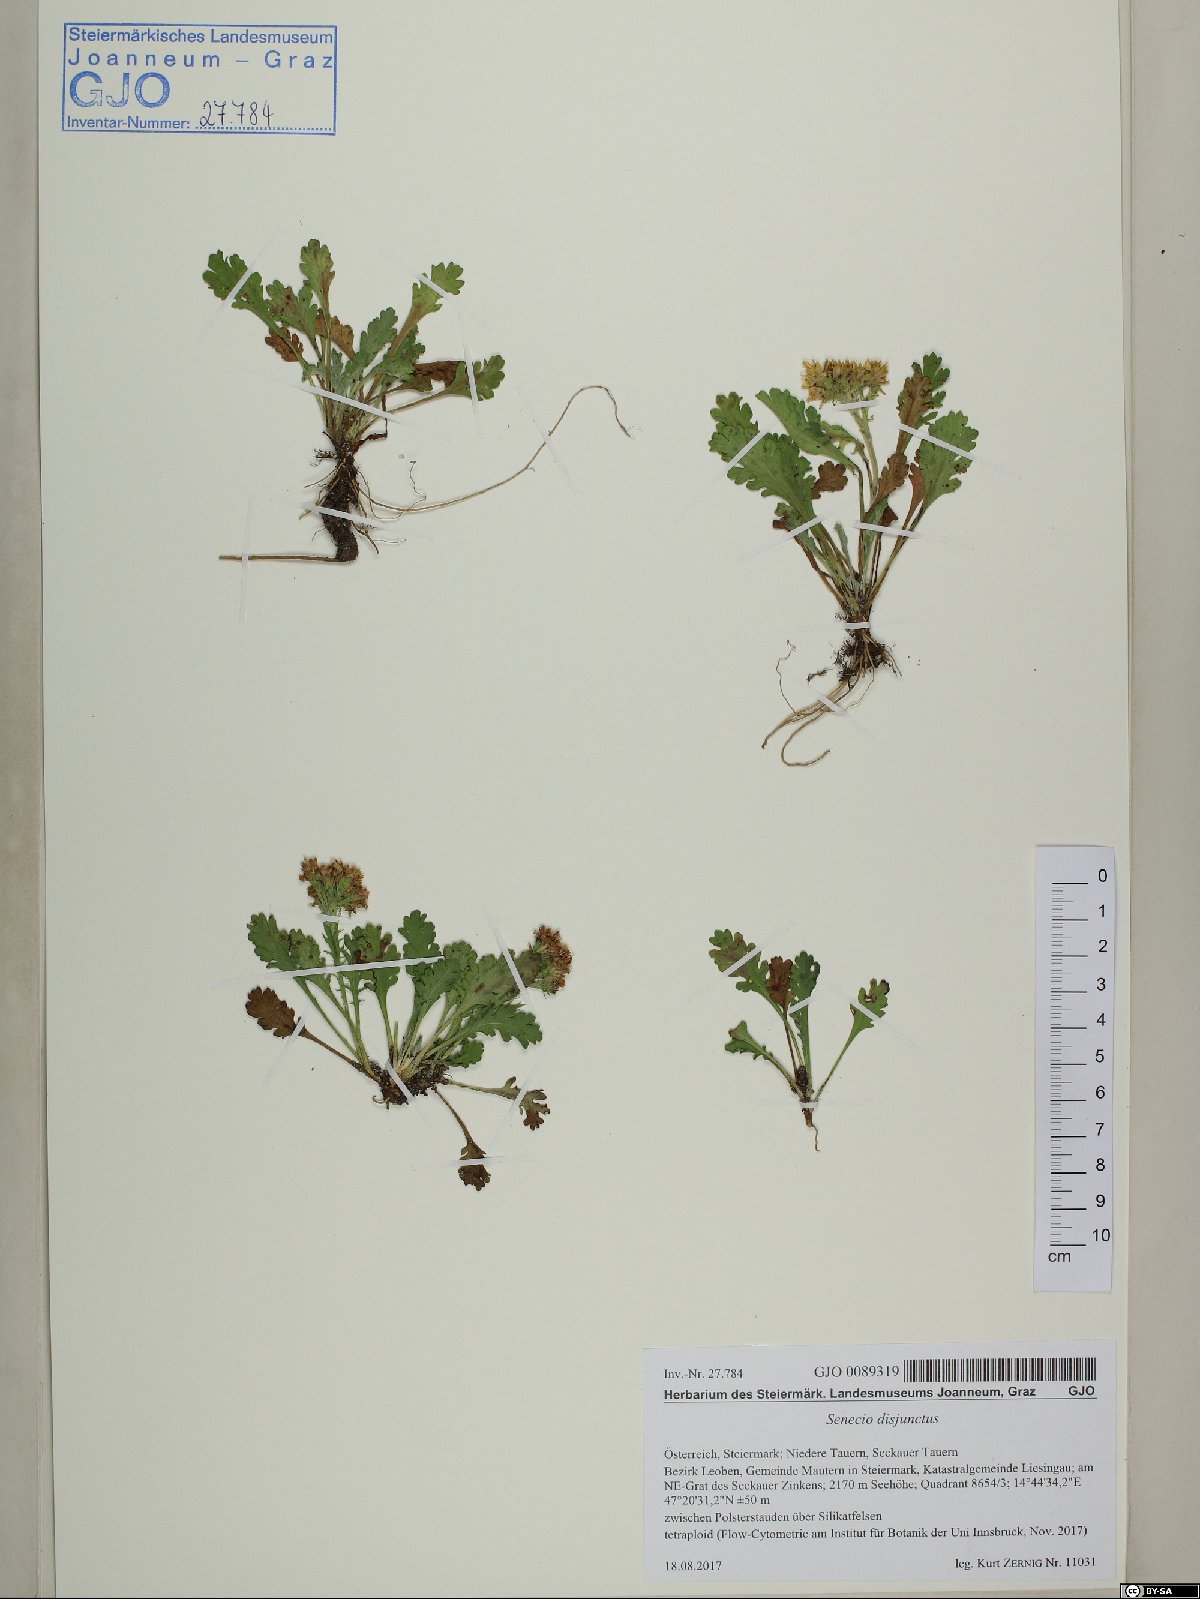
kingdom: Plantae
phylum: Tracheophyta
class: Magnoliopsida
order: Asterales
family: Asteraceae
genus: Jacobaea
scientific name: Jacobaea disjuncta
